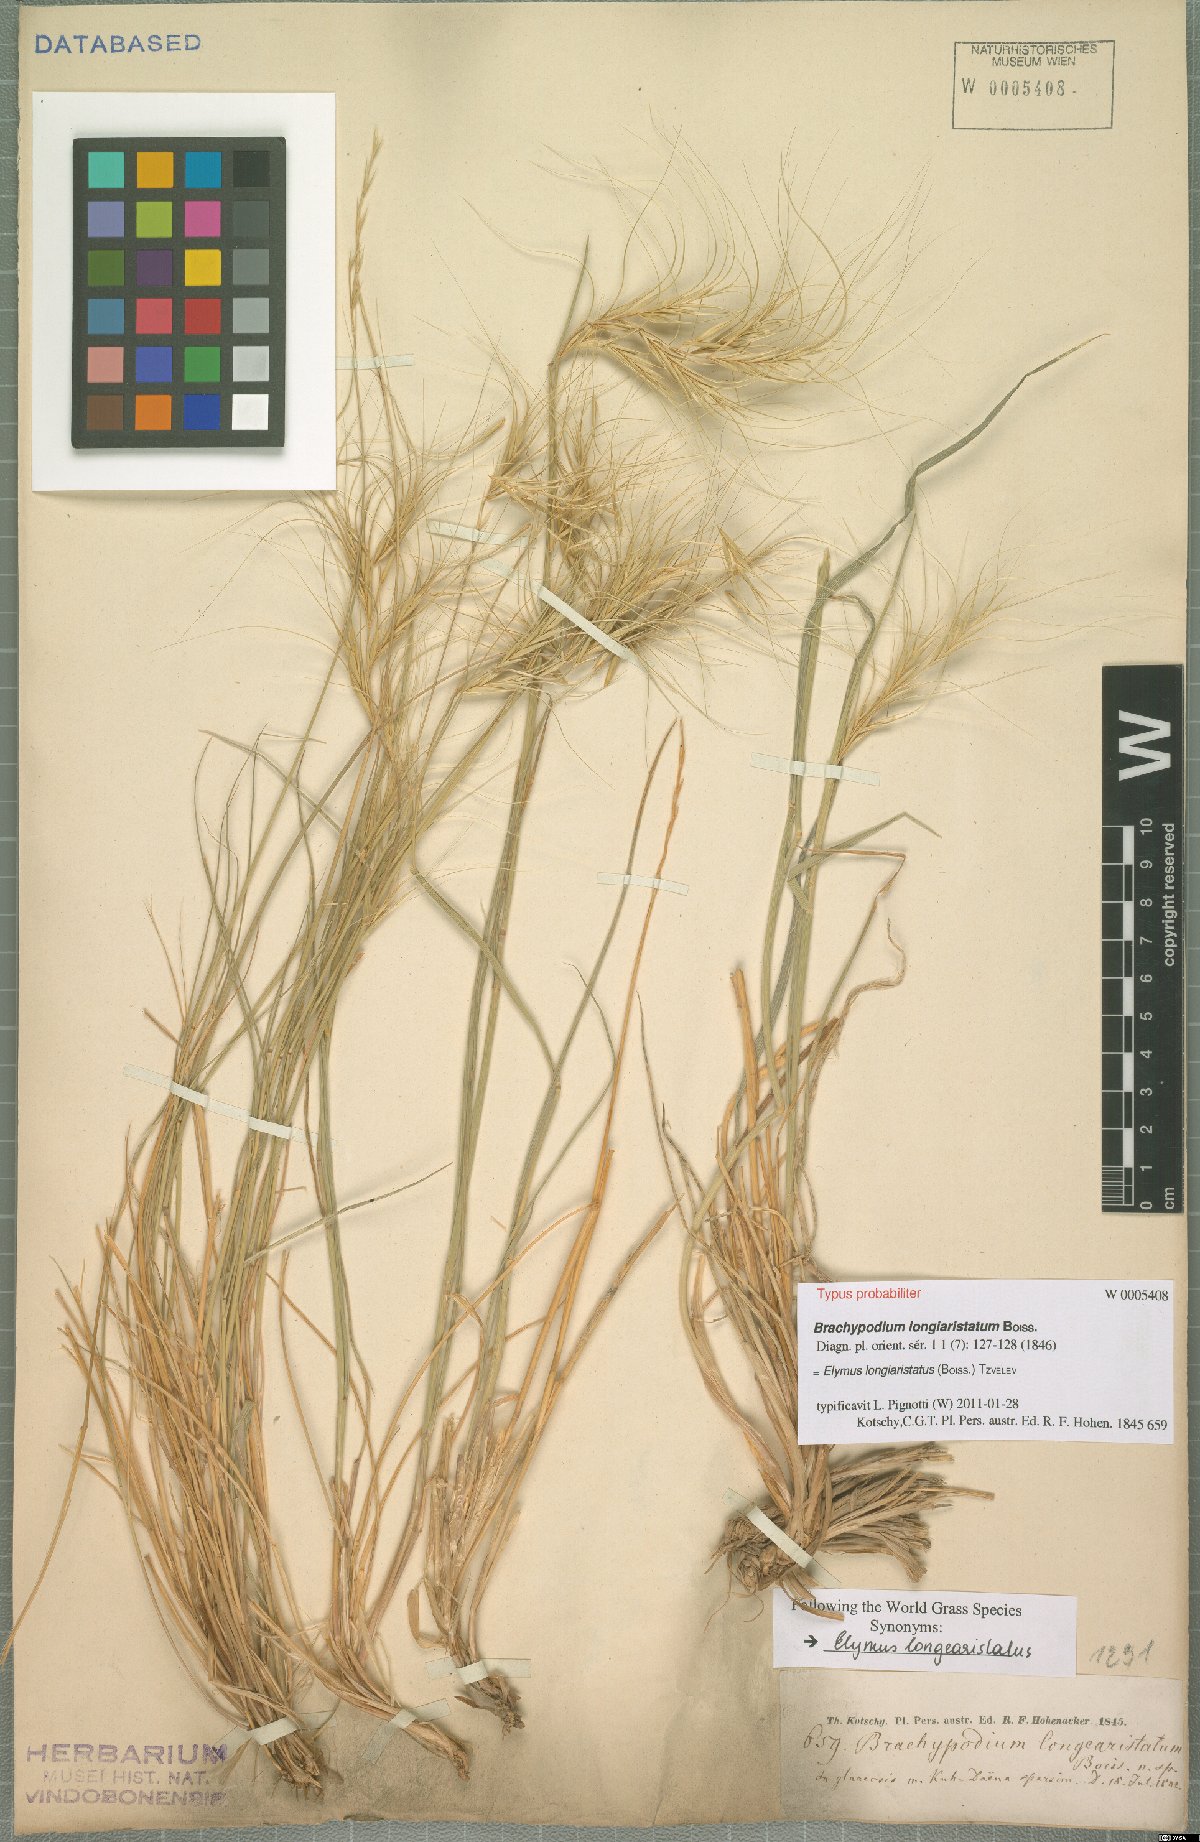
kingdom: Plantae
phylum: Tracheophyta
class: Liliopsida
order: Poales
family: Poaceae
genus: Elymus
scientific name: Elymus longiaristatus
